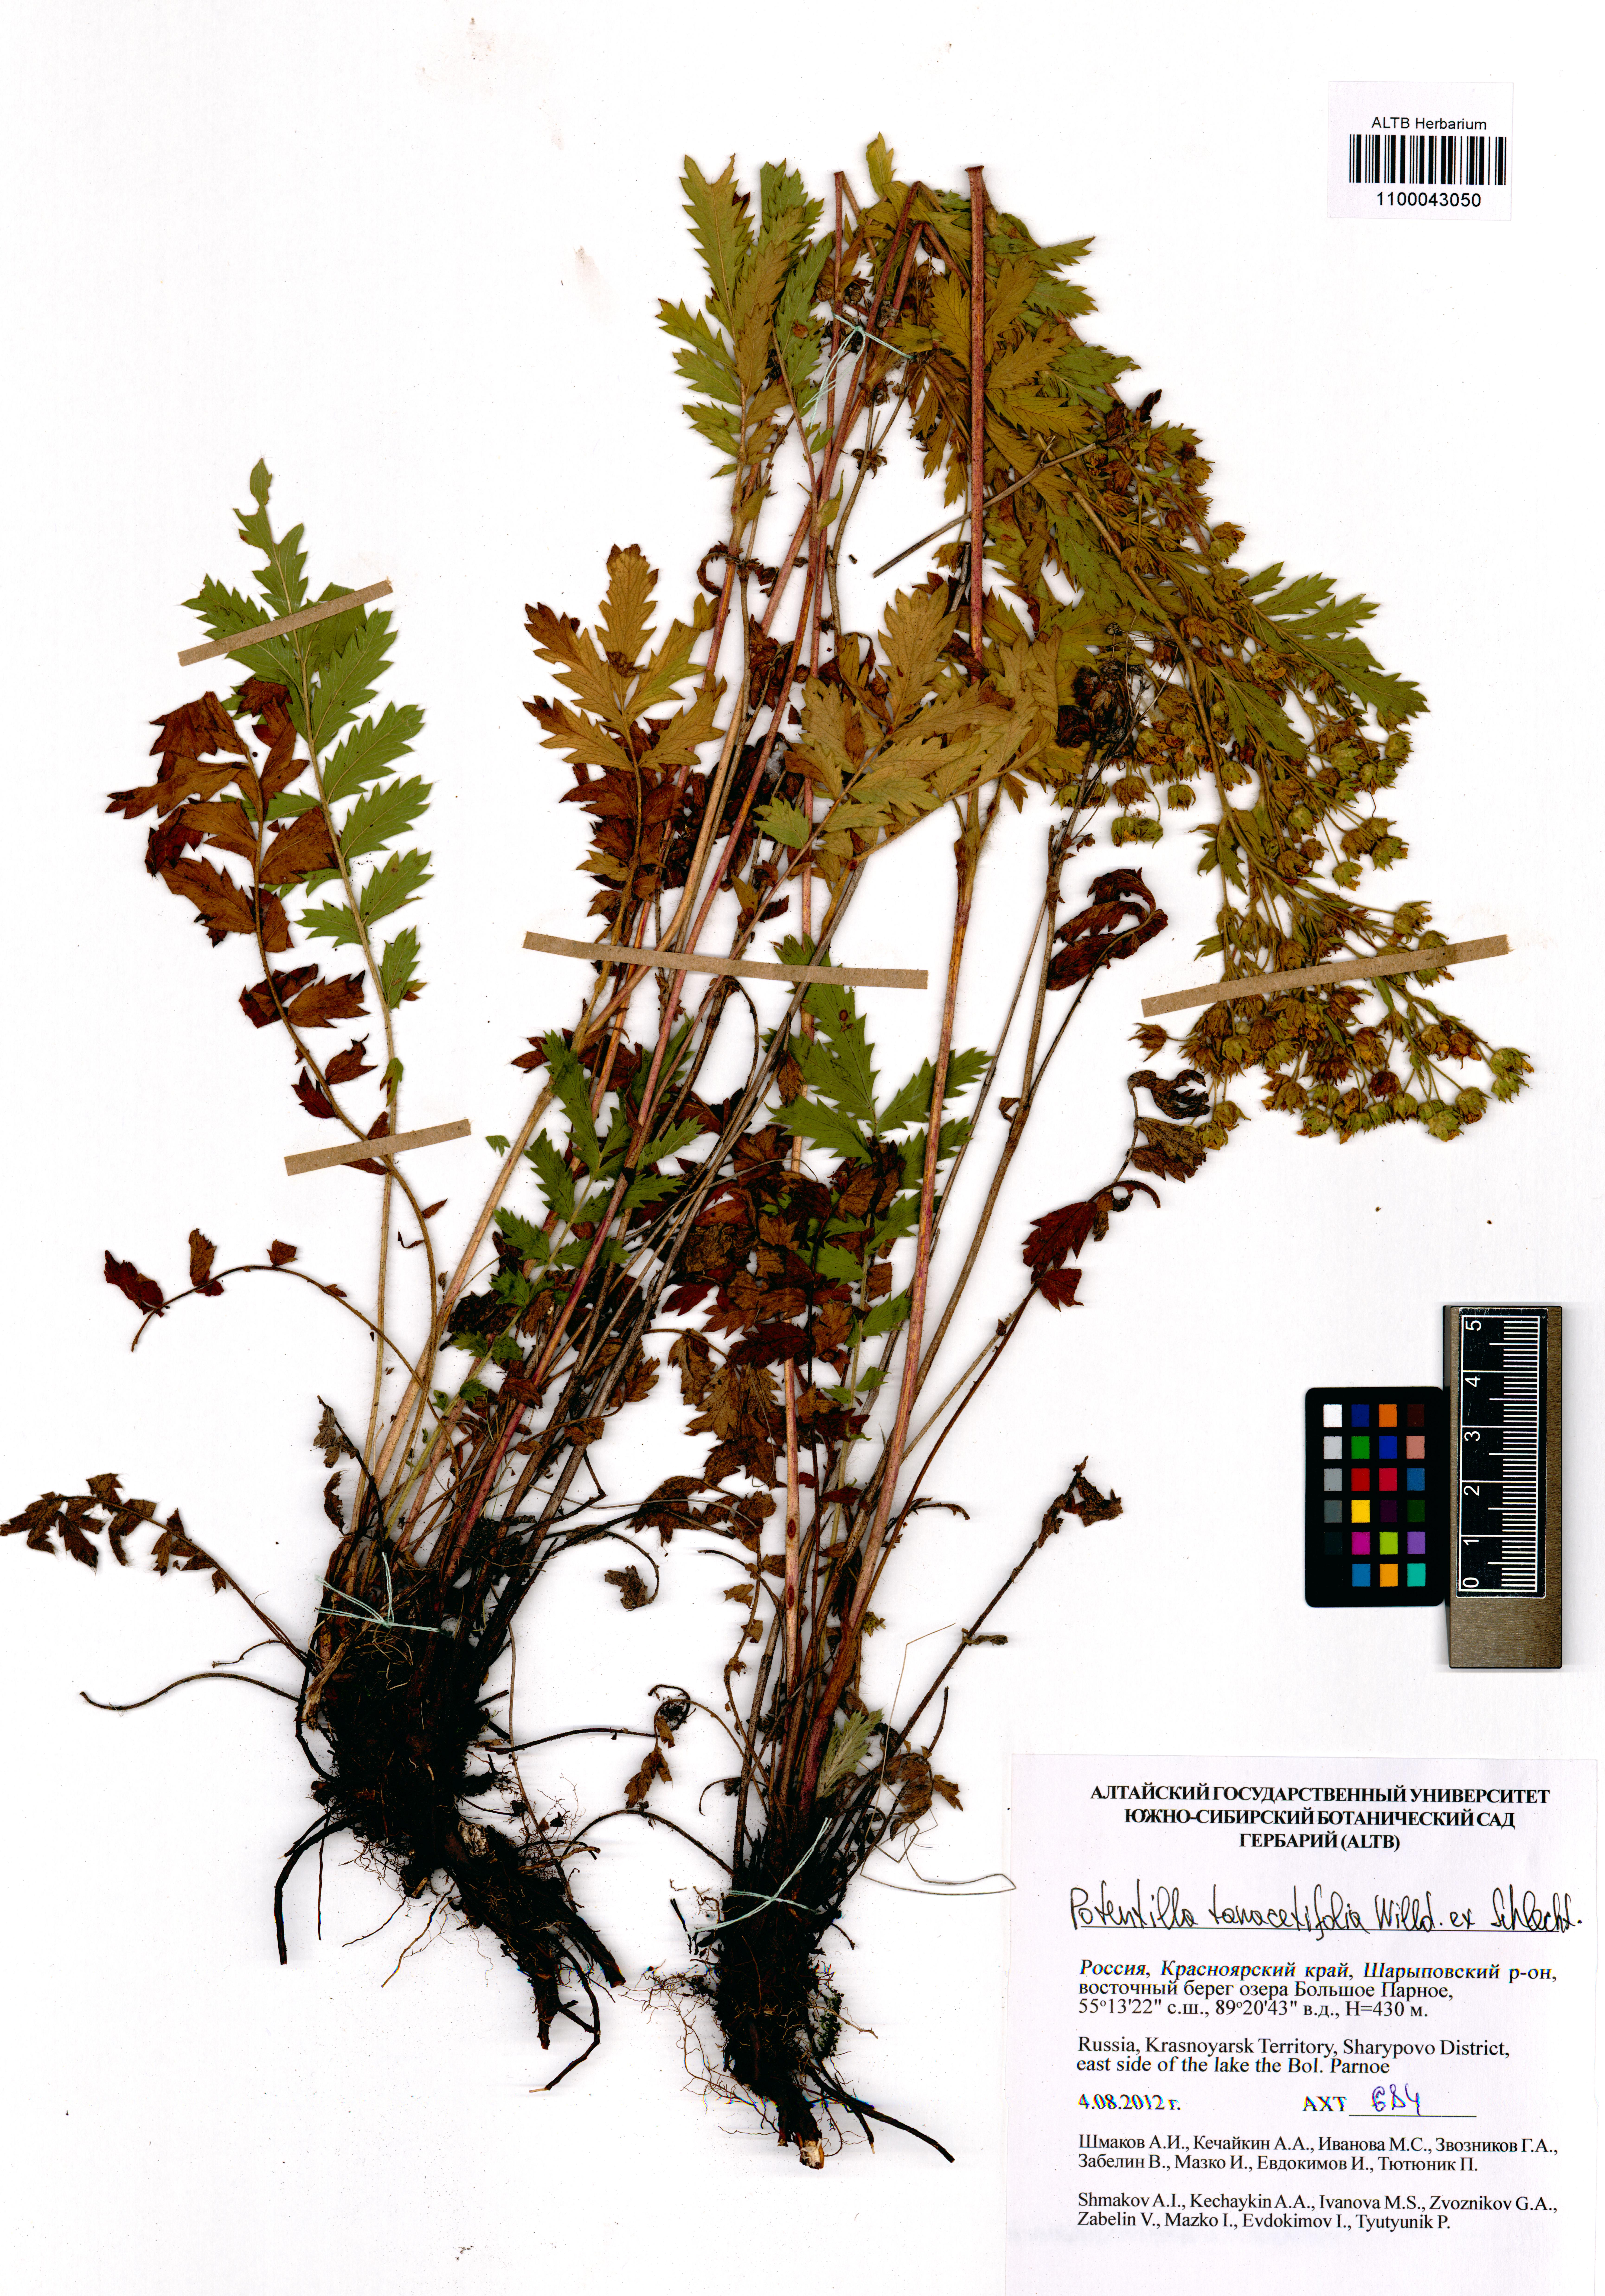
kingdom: Plantae
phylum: Tracheophyta
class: Magnoliopsida
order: Rosales
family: Rosaceae
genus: Potentilla
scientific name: Potentilla tanacetifolia
